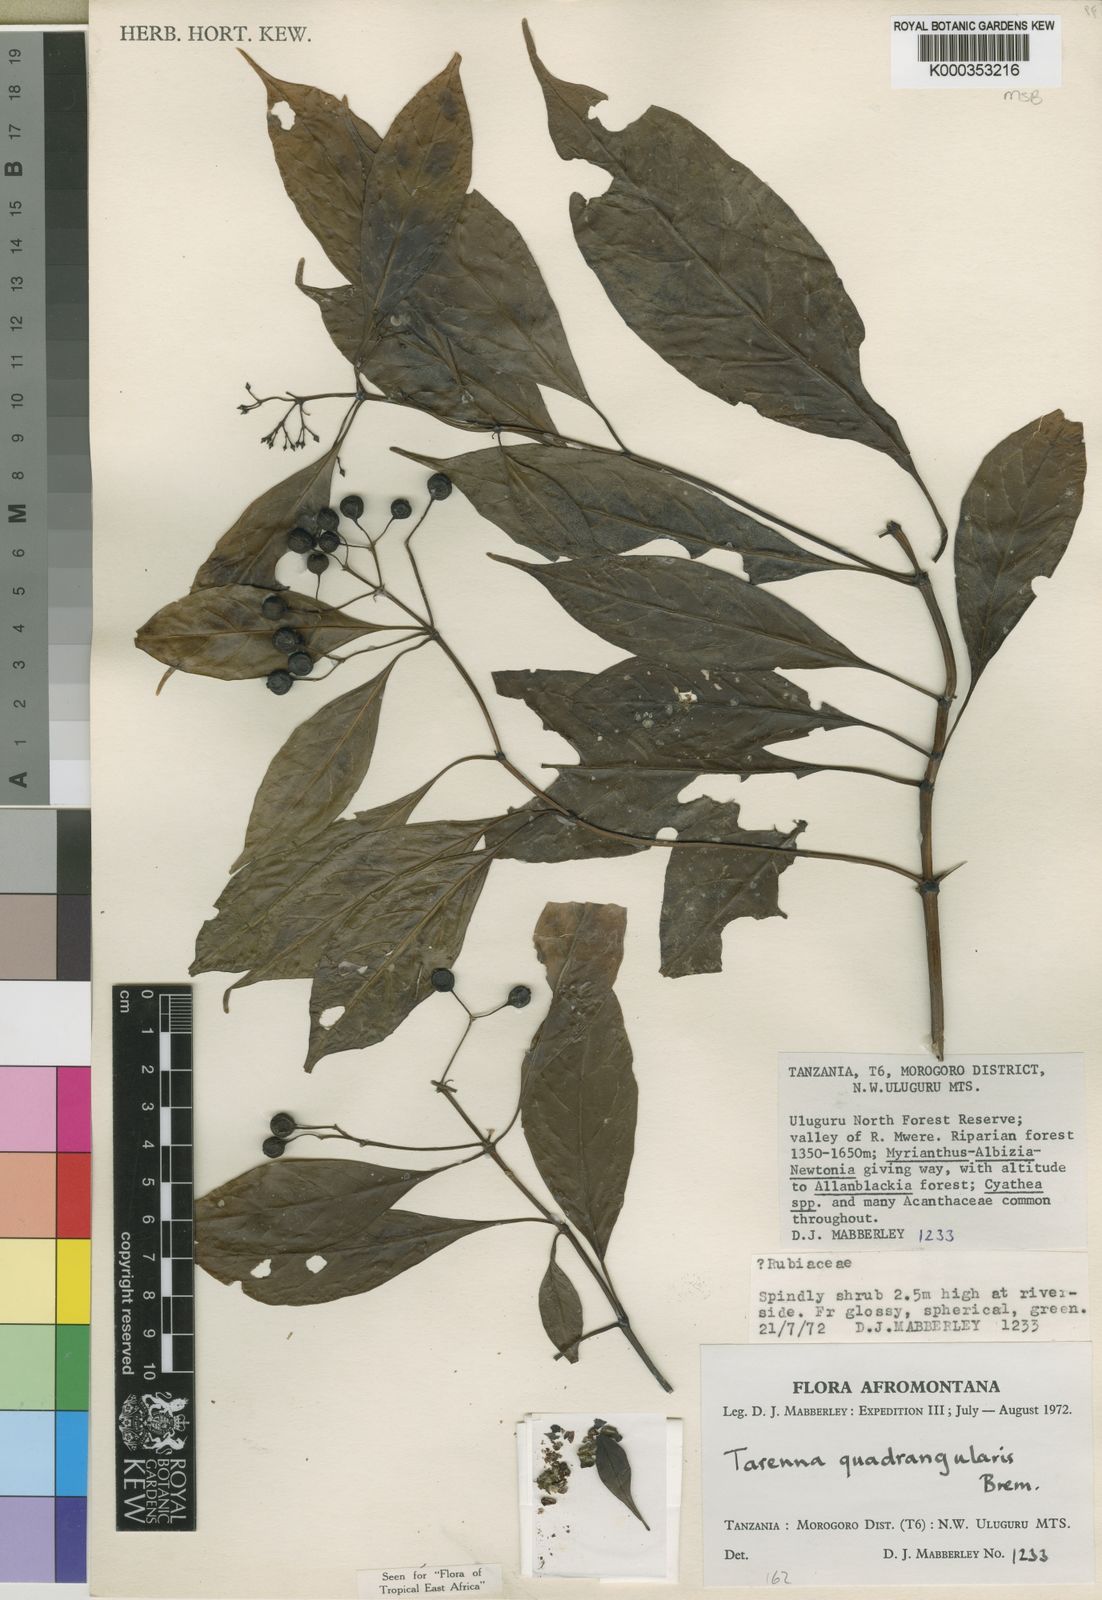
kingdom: Plantae
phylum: Tracheophyta
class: Magnoliopsida
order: Gentianales
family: Rubiaceae
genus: Tarenna
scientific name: Tarenna quadrangularis
